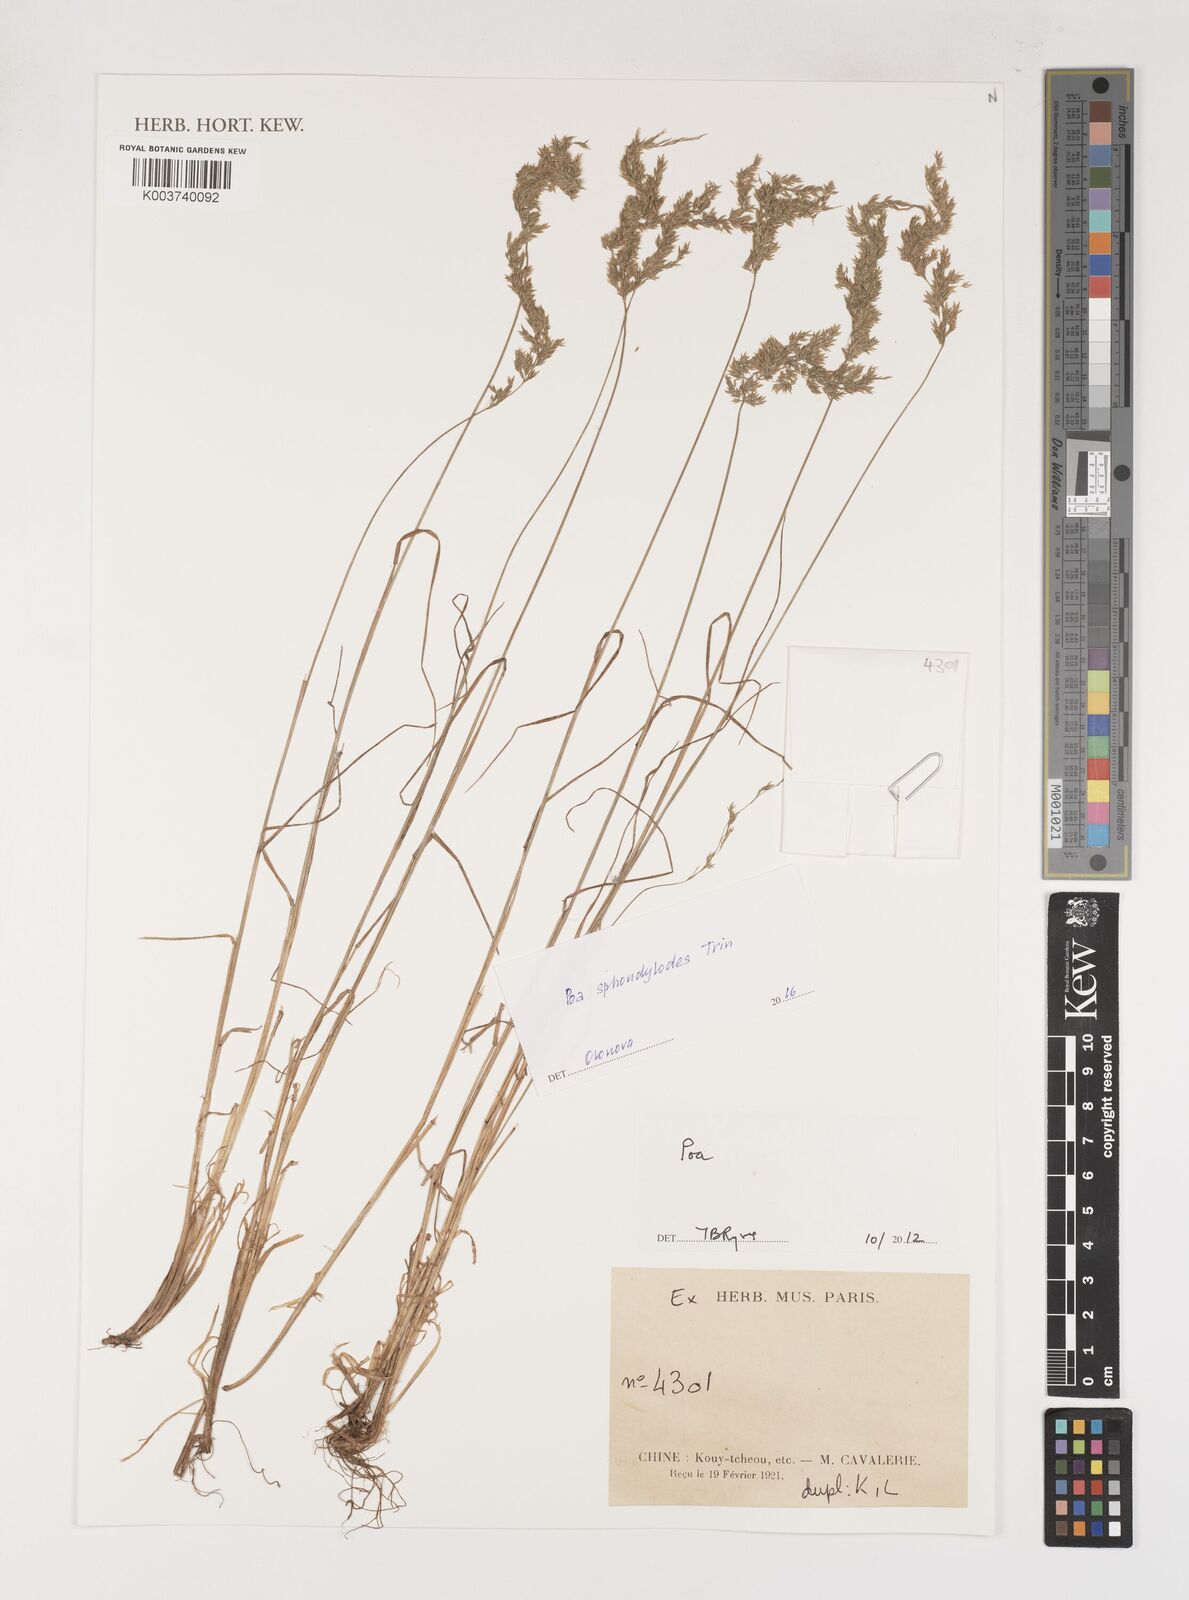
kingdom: Plantae
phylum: Tracheophyta
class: Liliopsida
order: Poales
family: Poaceae
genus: Poa
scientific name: Poa
